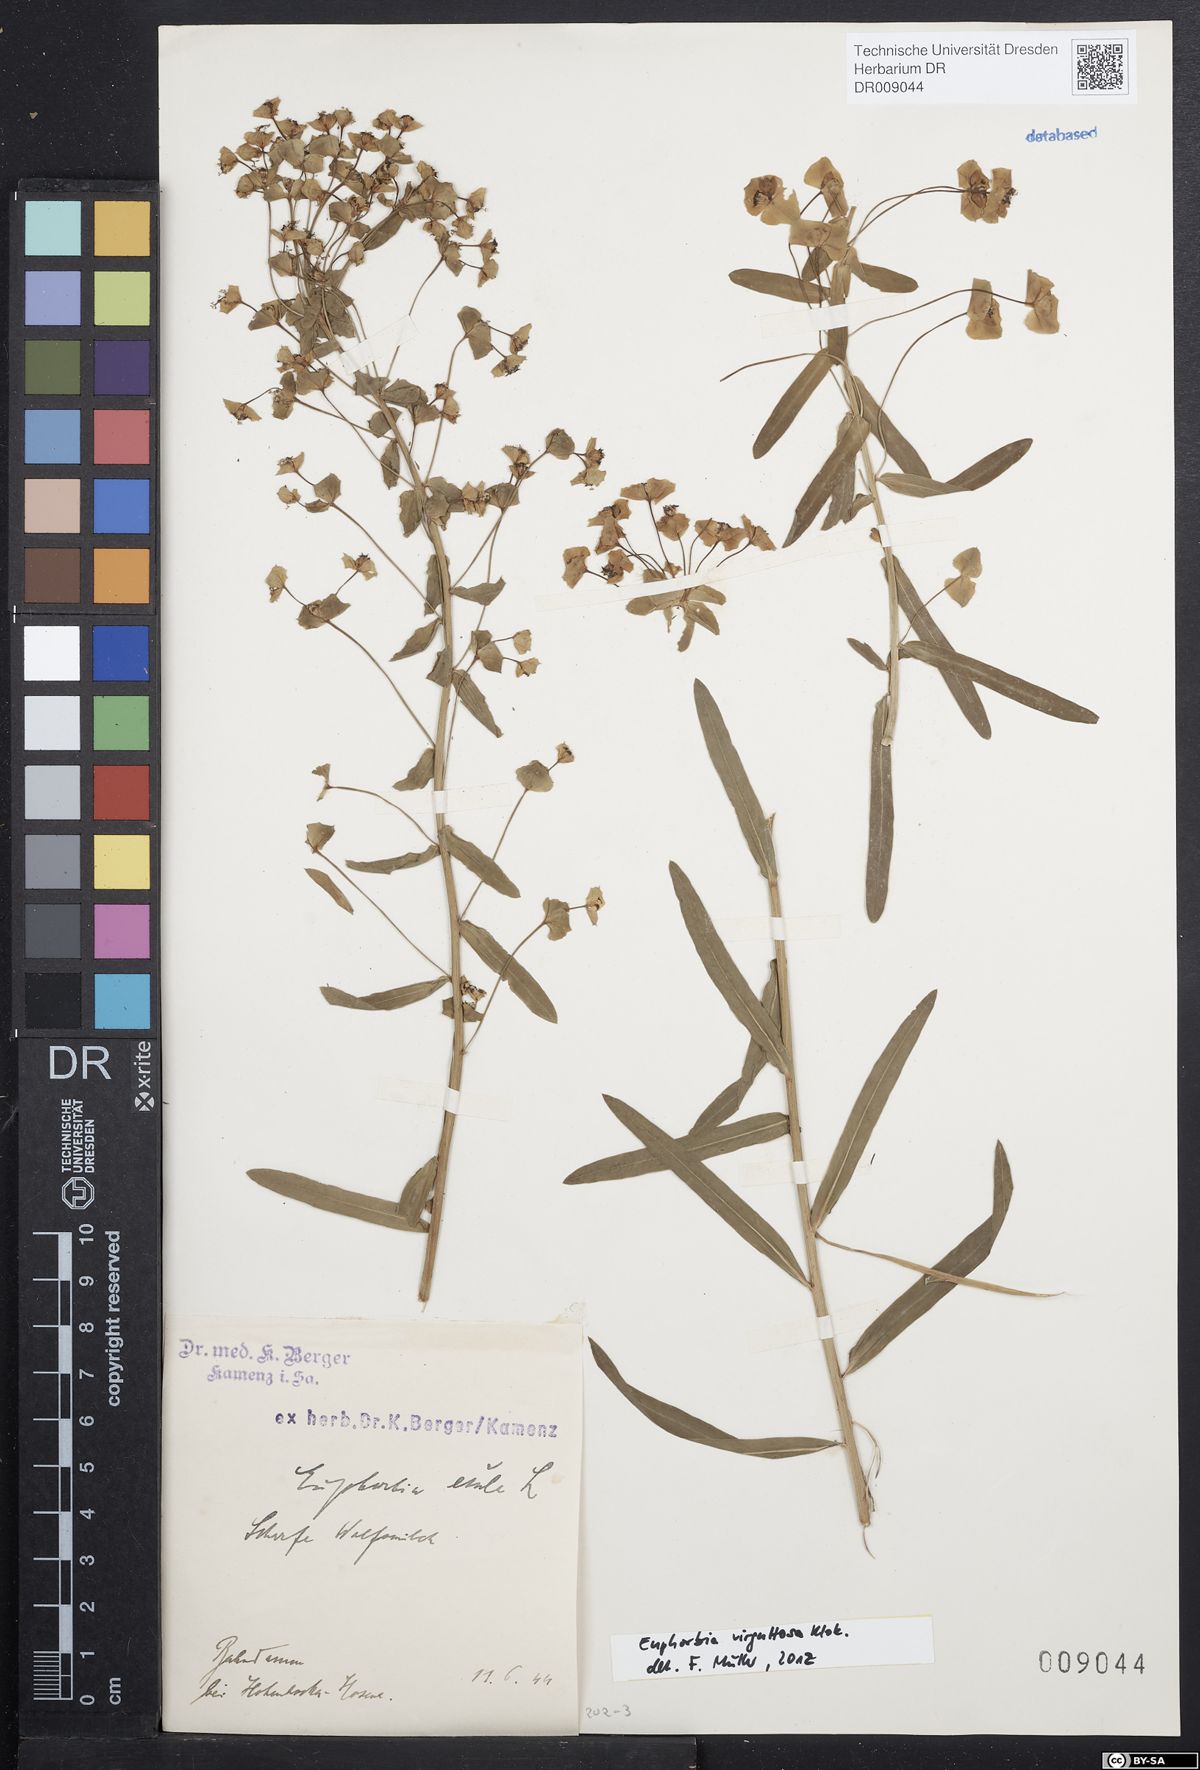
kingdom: Plantae
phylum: Tracheophyta
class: Magnoliopsida
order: Malpighiales
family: Euphorbiaceae
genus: Euphorbia
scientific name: Euphorbia saratoi
